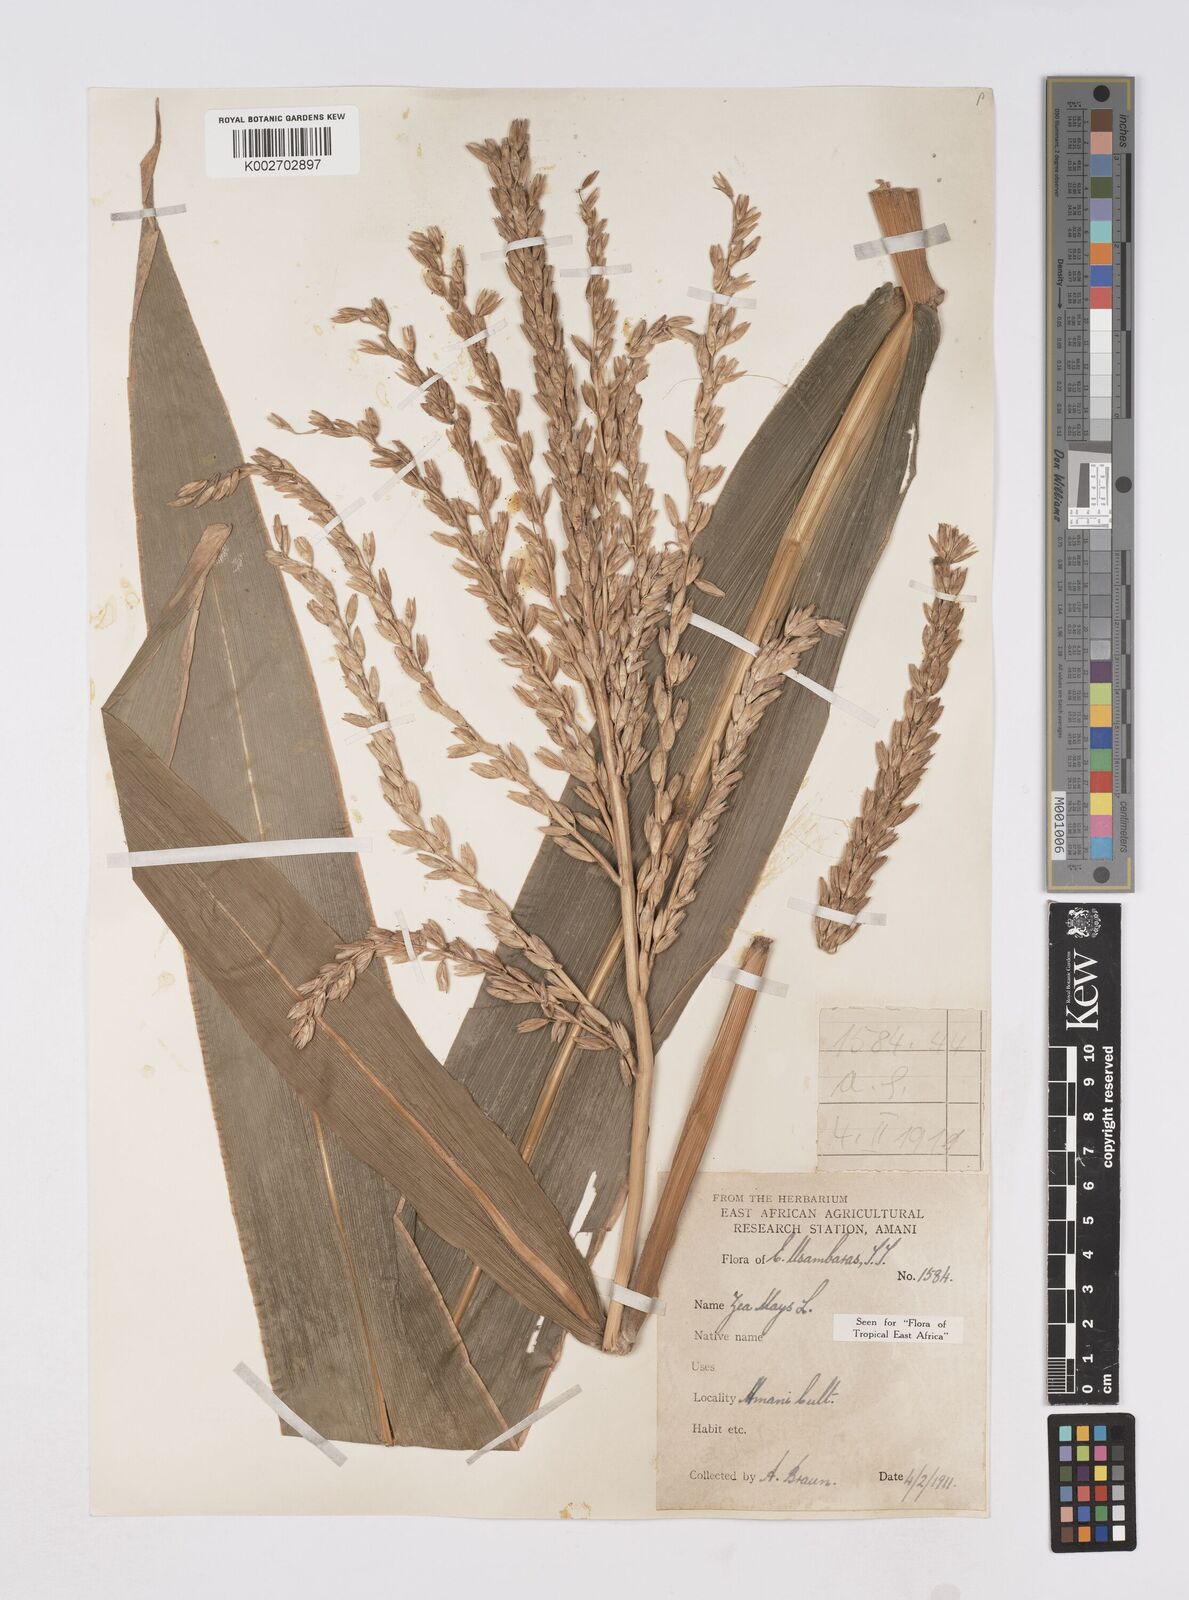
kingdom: Plantae
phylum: Tracheophyta
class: Liliopsida
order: Poales
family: Poaceae
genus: Zea
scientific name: Zea mays
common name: Maize
